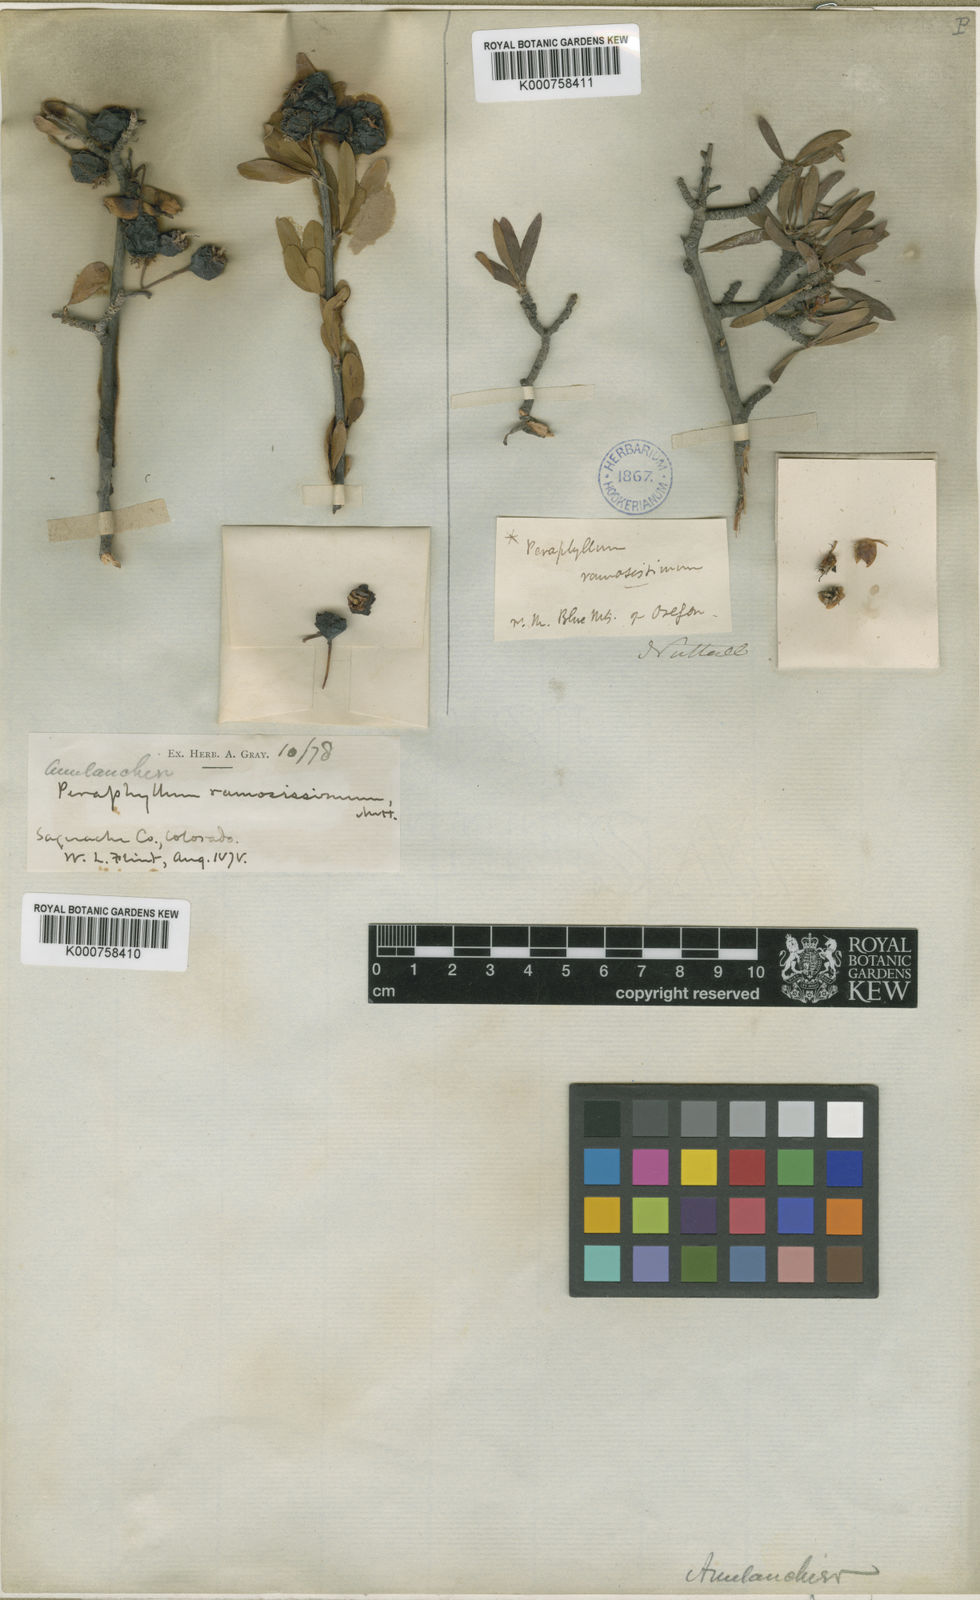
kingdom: Plantae
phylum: Tracheophyta
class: Magnoliopsida
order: Rosales
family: Rosaceae
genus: Amelanchier
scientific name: Amelanchier ramosissima
